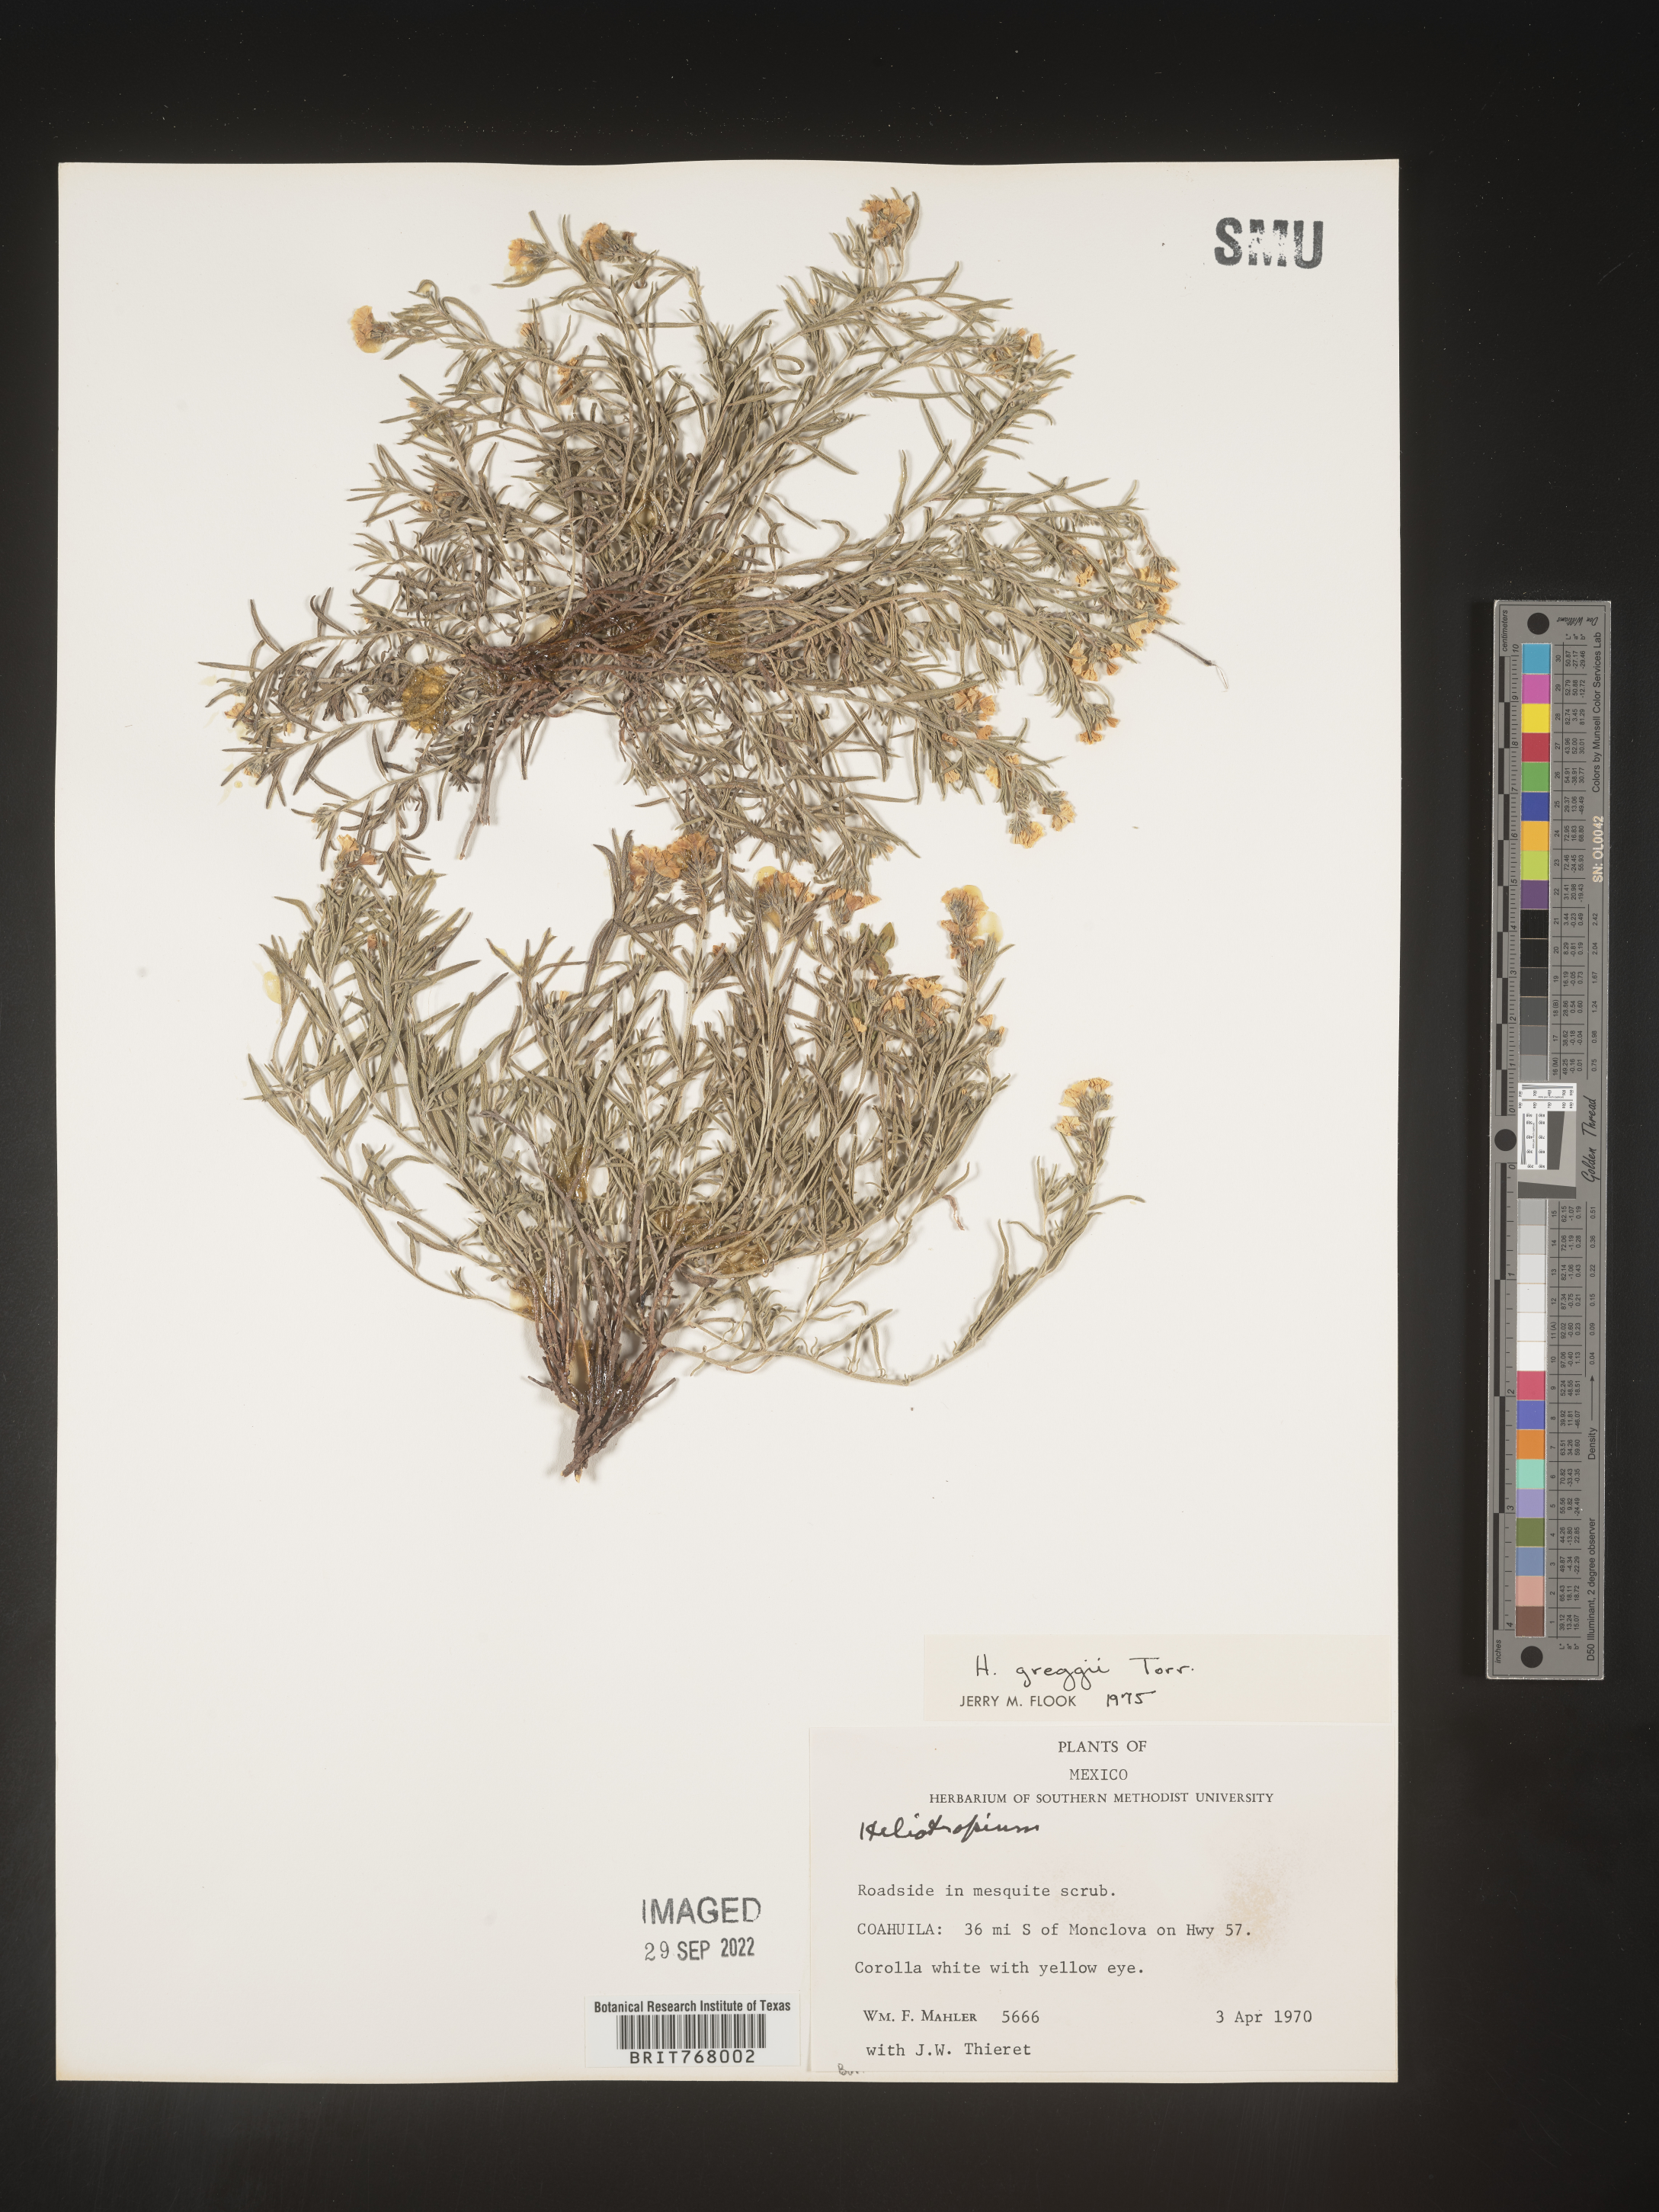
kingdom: Plantae
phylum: Tracheophyta
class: Magnoliopsida
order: Boraginales
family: Heliotropiaceae
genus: Heliotropium
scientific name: Heliotropium
